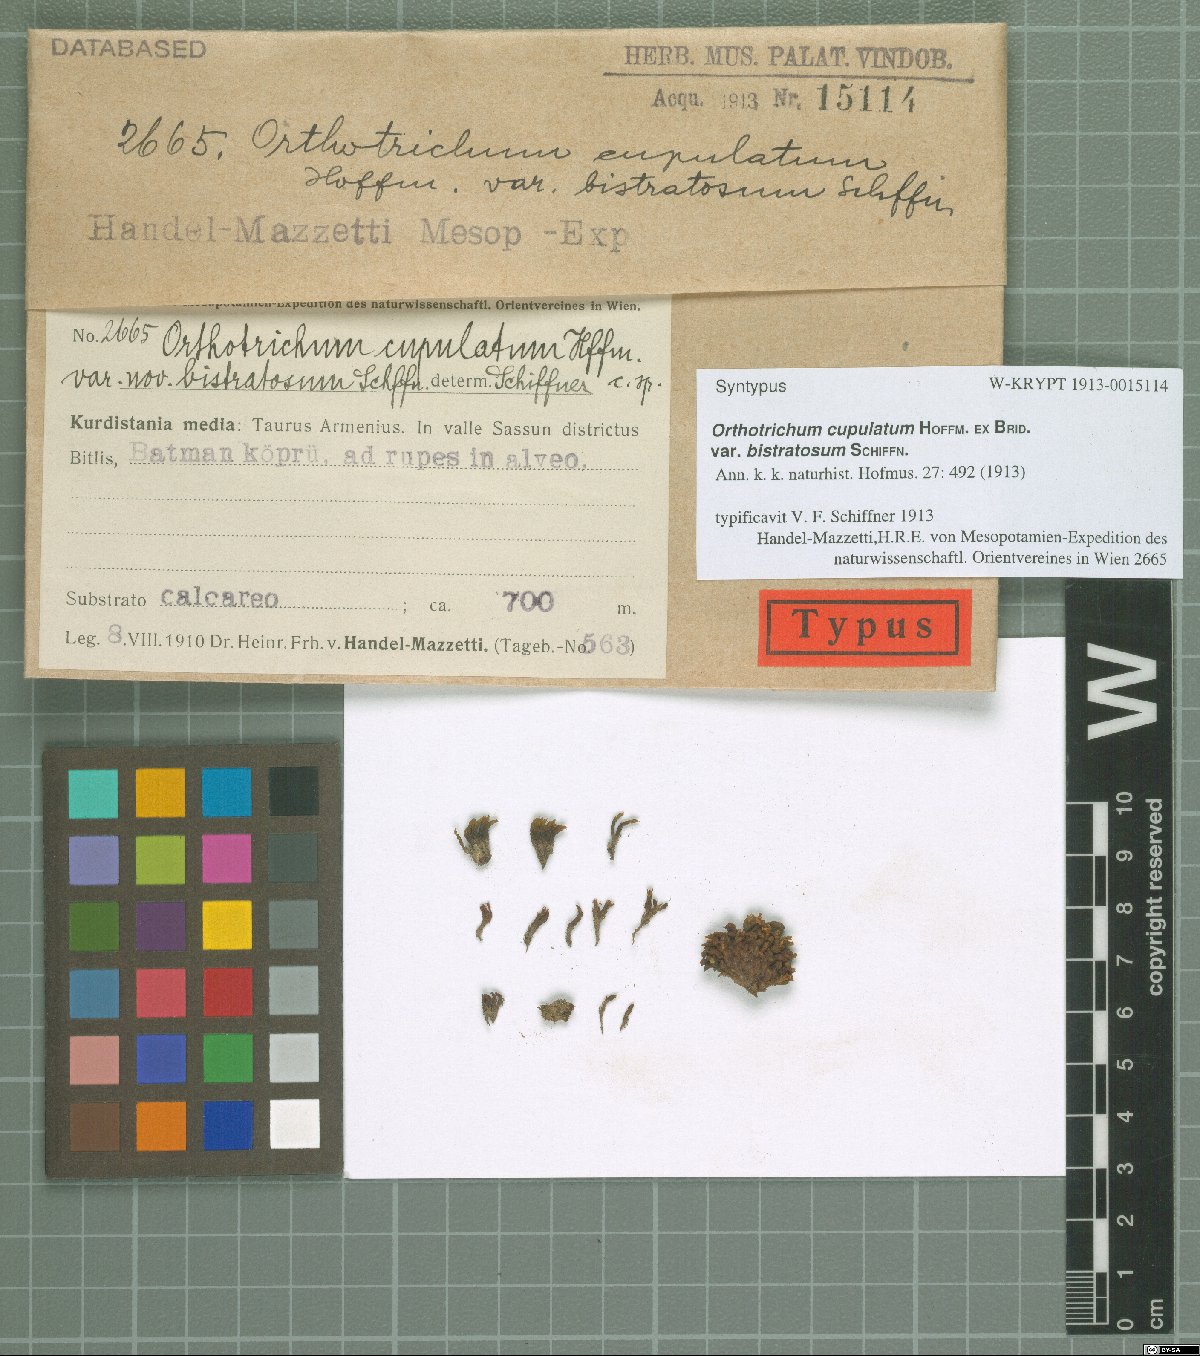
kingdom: Plantae
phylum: Bryophyta
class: Bryopsida
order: Orthotrichales
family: Orthotrichaceae
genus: Orthotrichum
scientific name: Orthotrichum bistratosum
